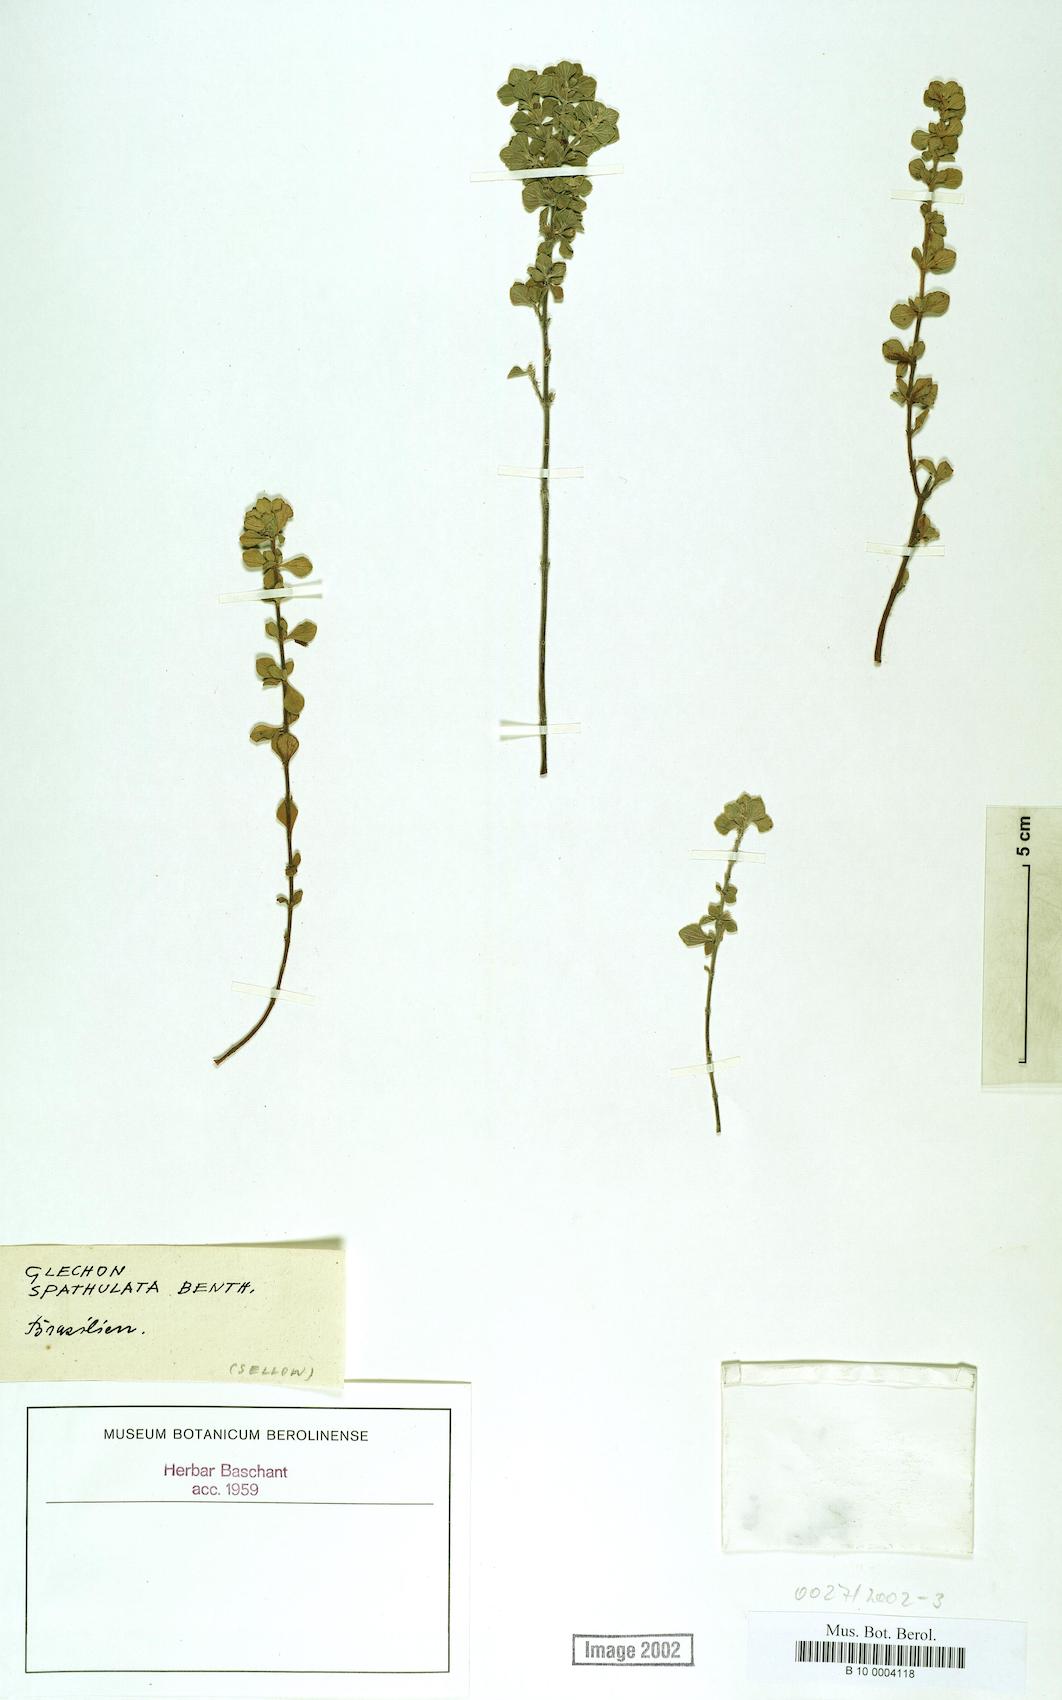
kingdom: Plantae
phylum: Tracheophyta
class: Magnoliopsida
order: Lamiales
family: Lamiaceae
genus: Glechon
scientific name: Glechon thymoides
